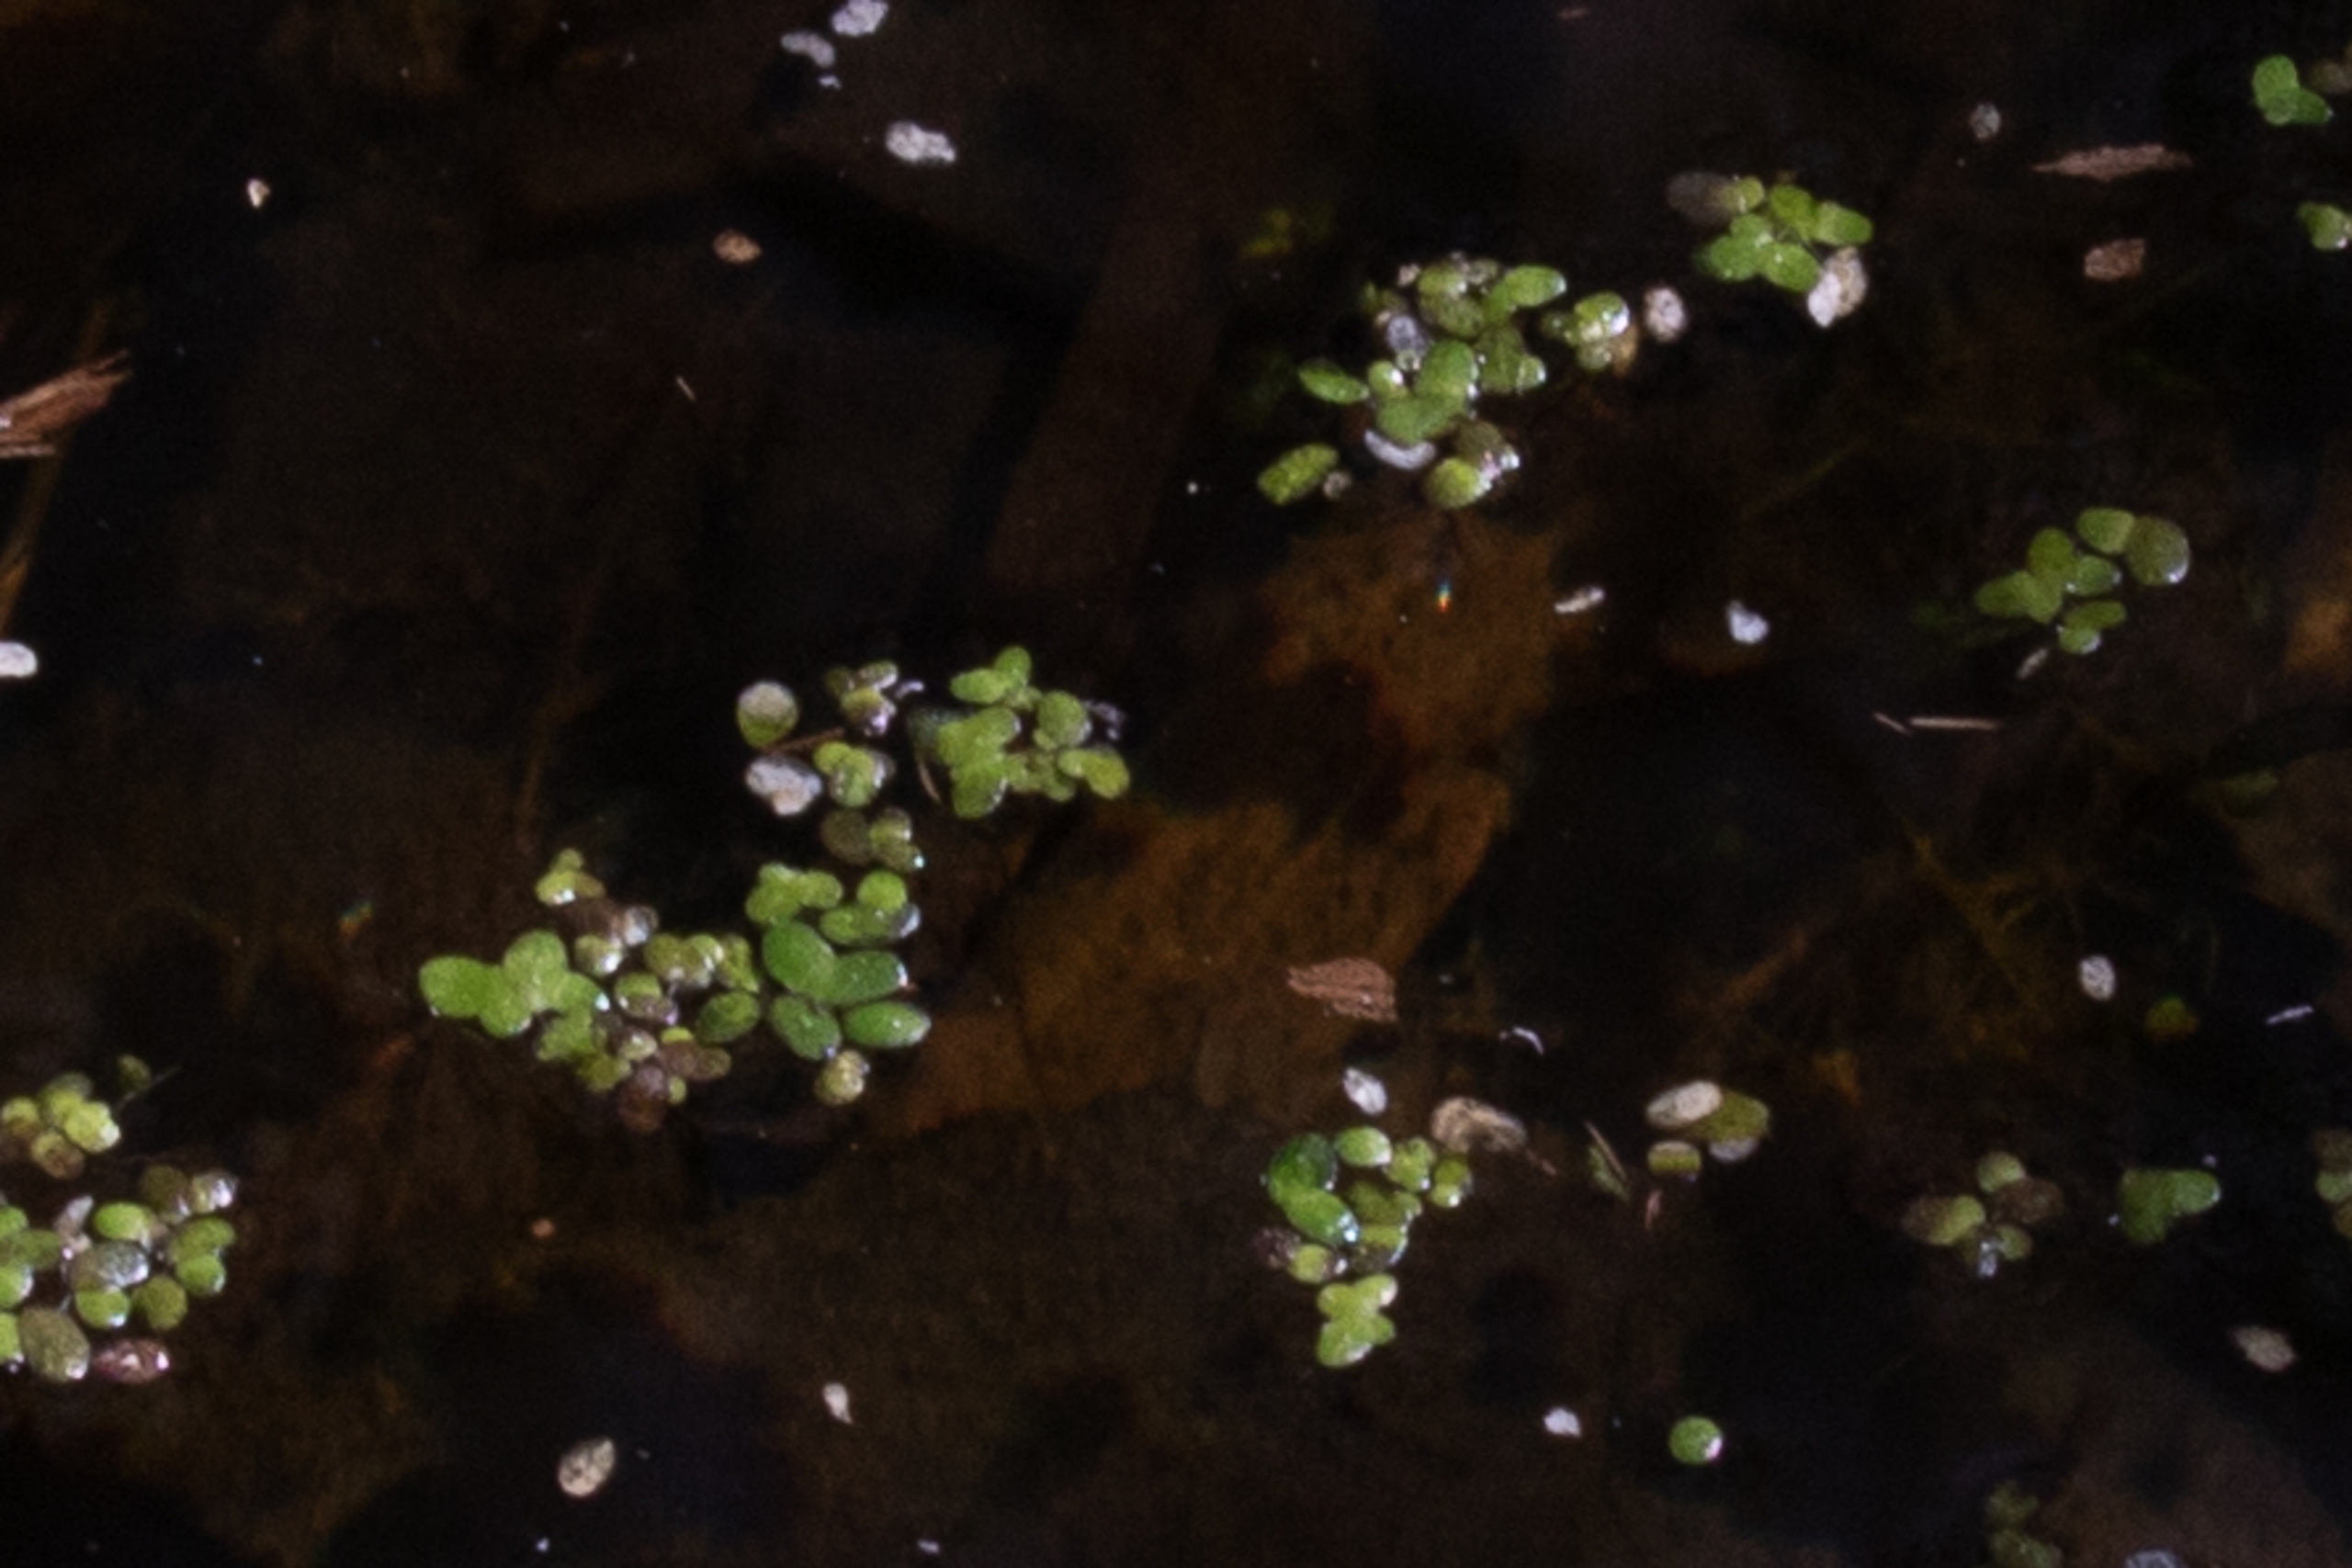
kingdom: Plantae
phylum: Tracheophyta
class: Liliopsida
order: Alismatales
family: Araceae
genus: Lemna
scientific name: Lemna
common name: Andemad (Lemna-slægten)
